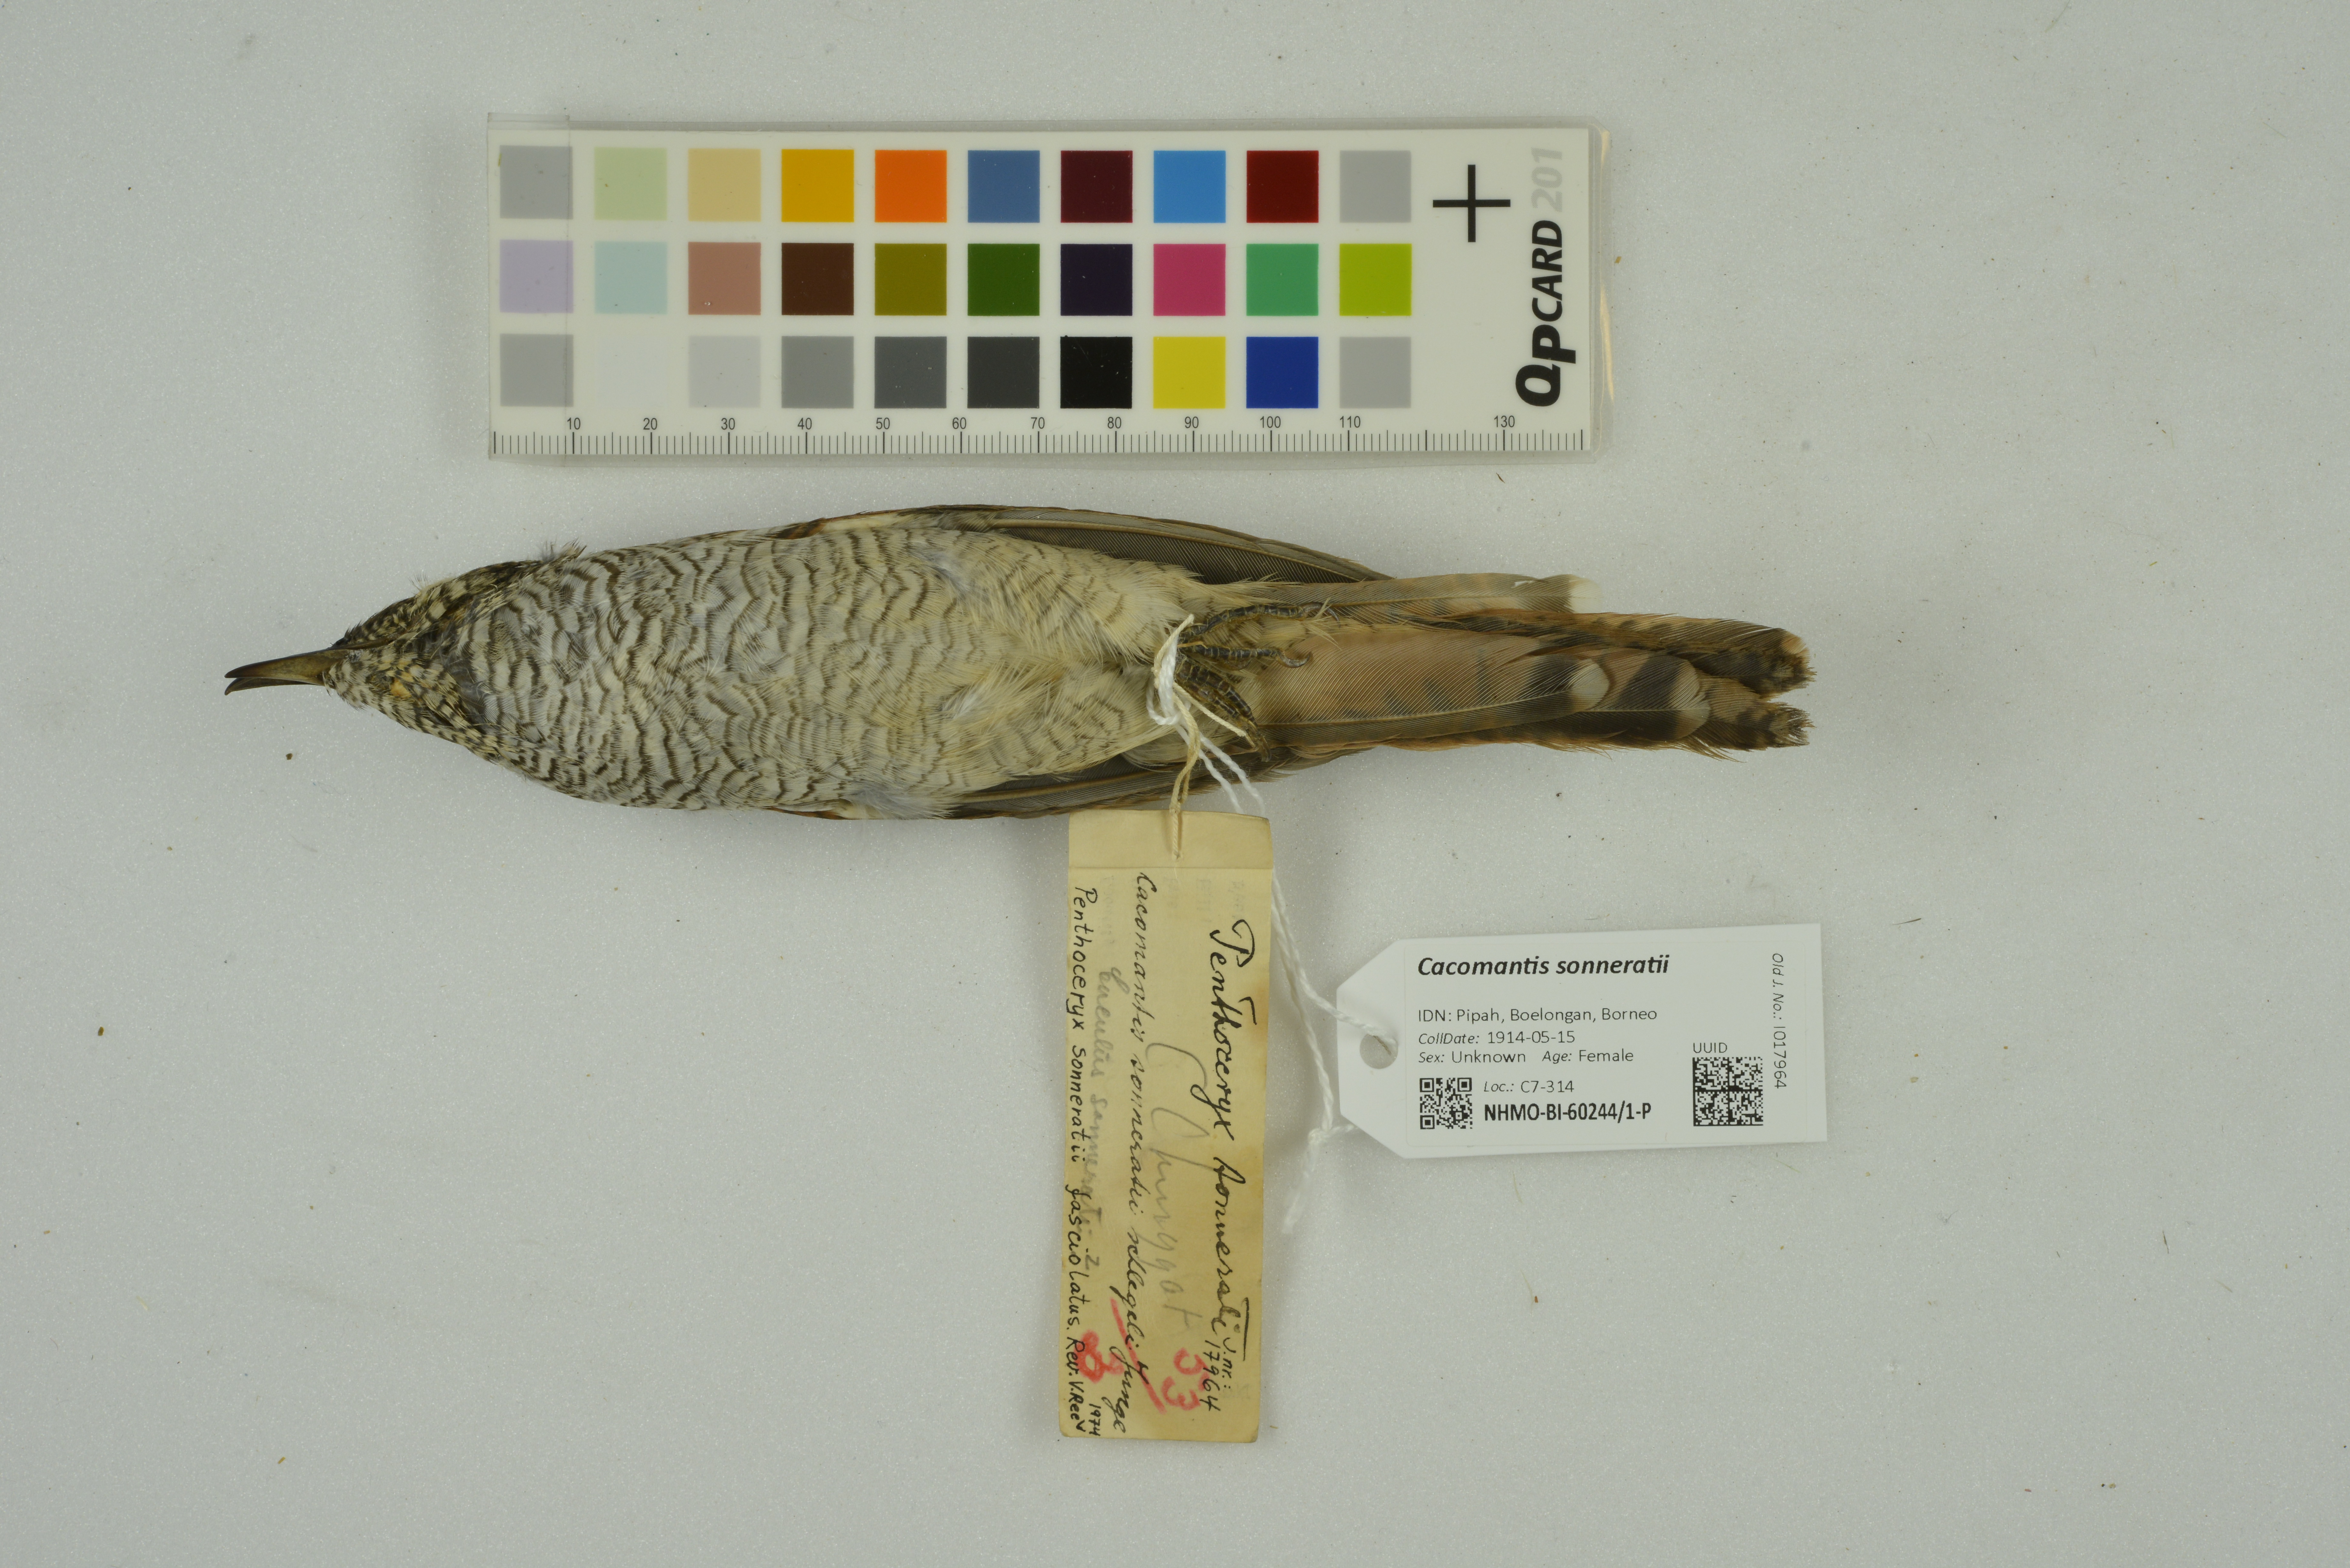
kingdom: Animalia
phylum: Chordata
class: Aves
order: Cuculiformes
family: Cuculidae
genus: Cacomantis
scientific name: Cacomantis sonneratii
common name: Banded bay cuckoo
